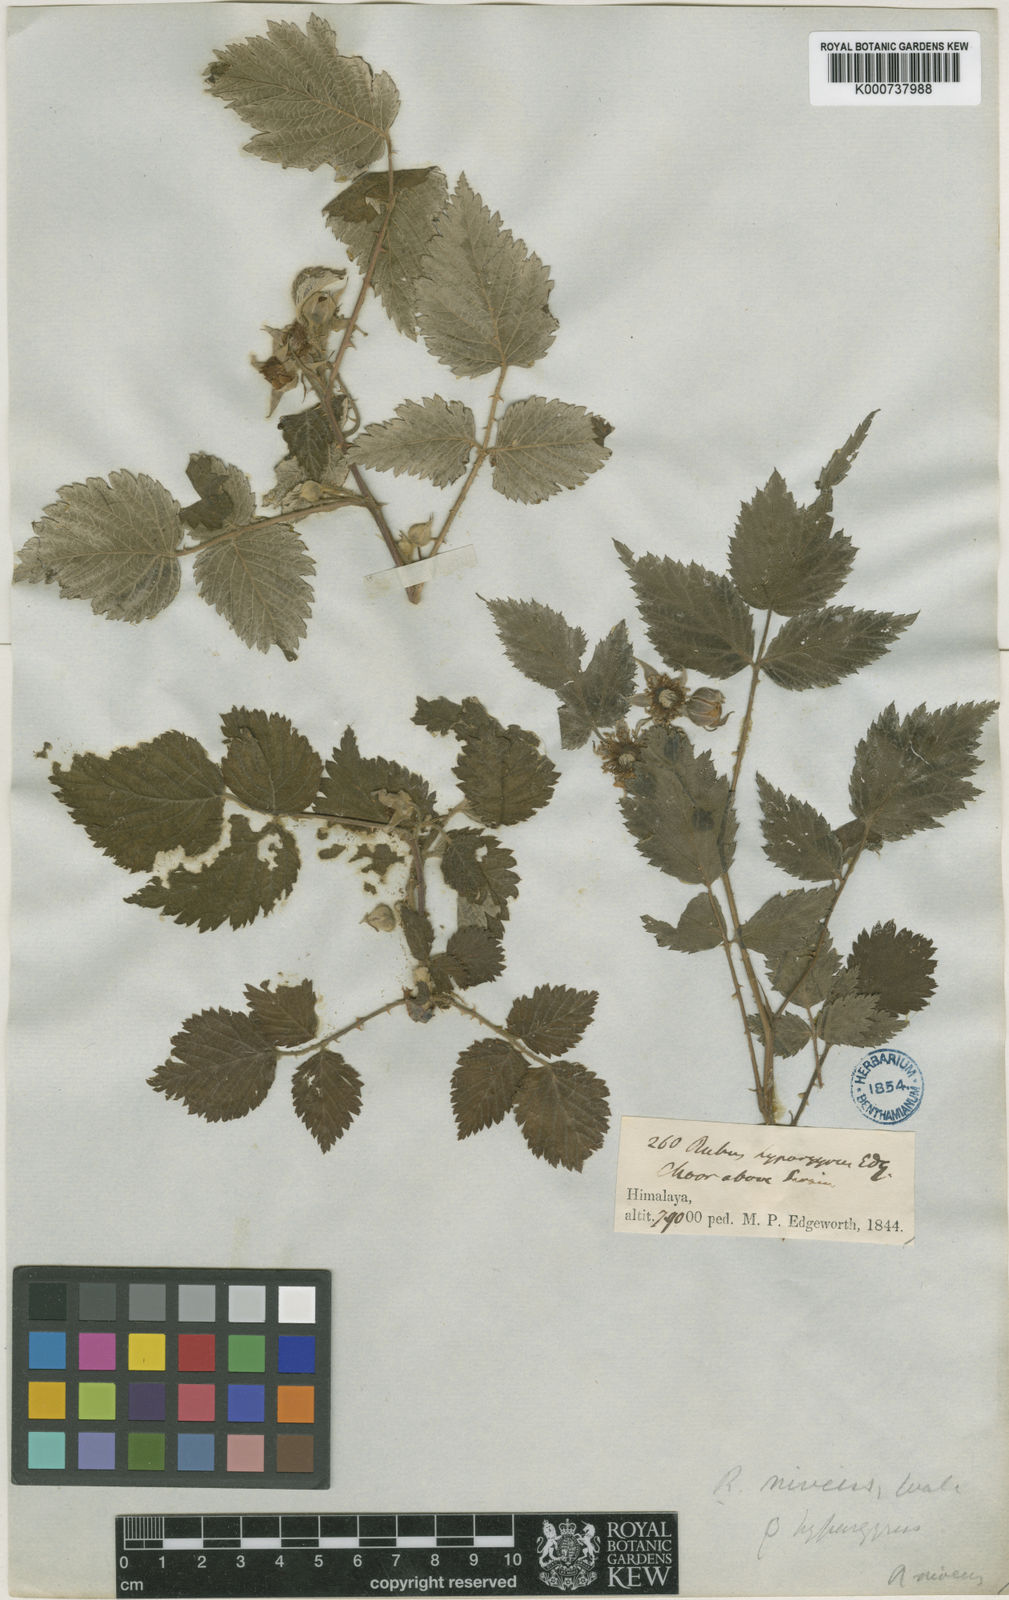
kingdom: Plantae
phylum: Tracheophyta
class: Magnoliopsida
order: Rosales
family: Rosaceae
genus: Rubus
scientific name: Rubus pedunculosus
